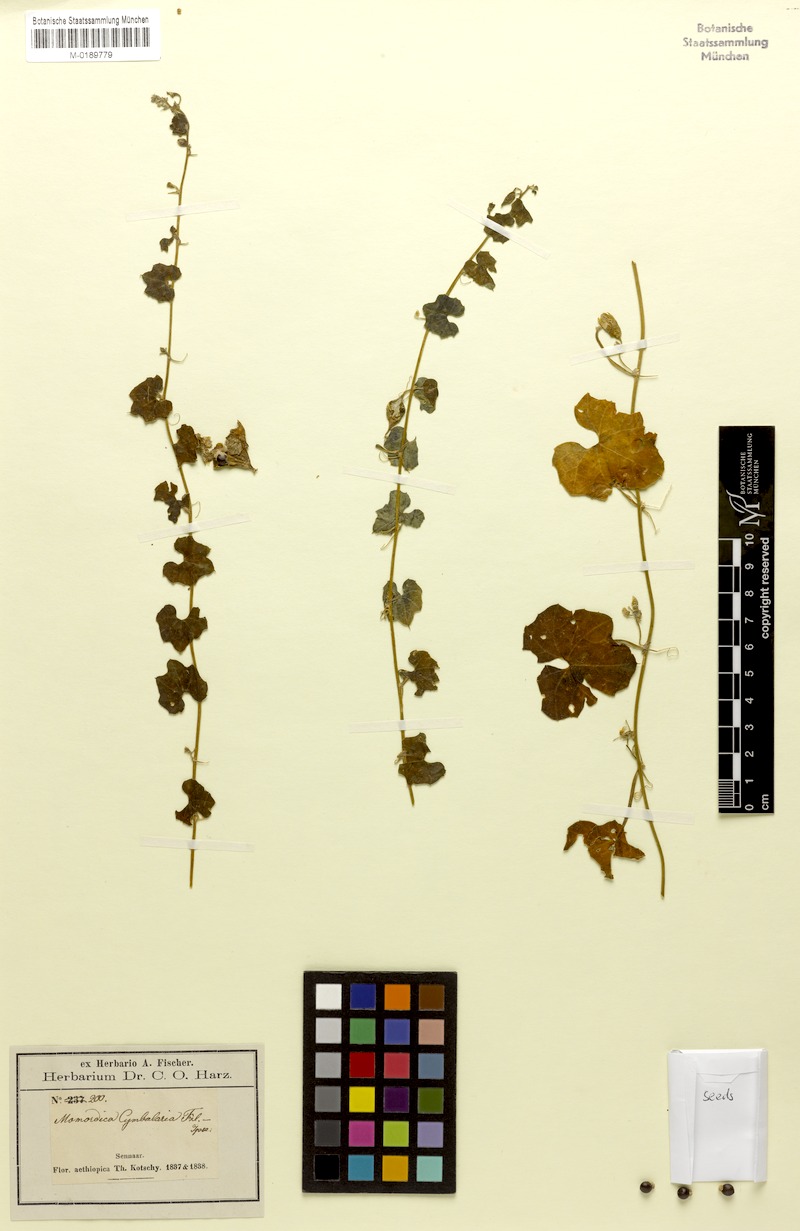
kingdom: Plantae
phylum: Tracheophyta
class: Magnoliopsida
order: Cucurbitales
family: Cucurbitaceae
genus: Momordica
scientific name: Momordica cymbalaria
